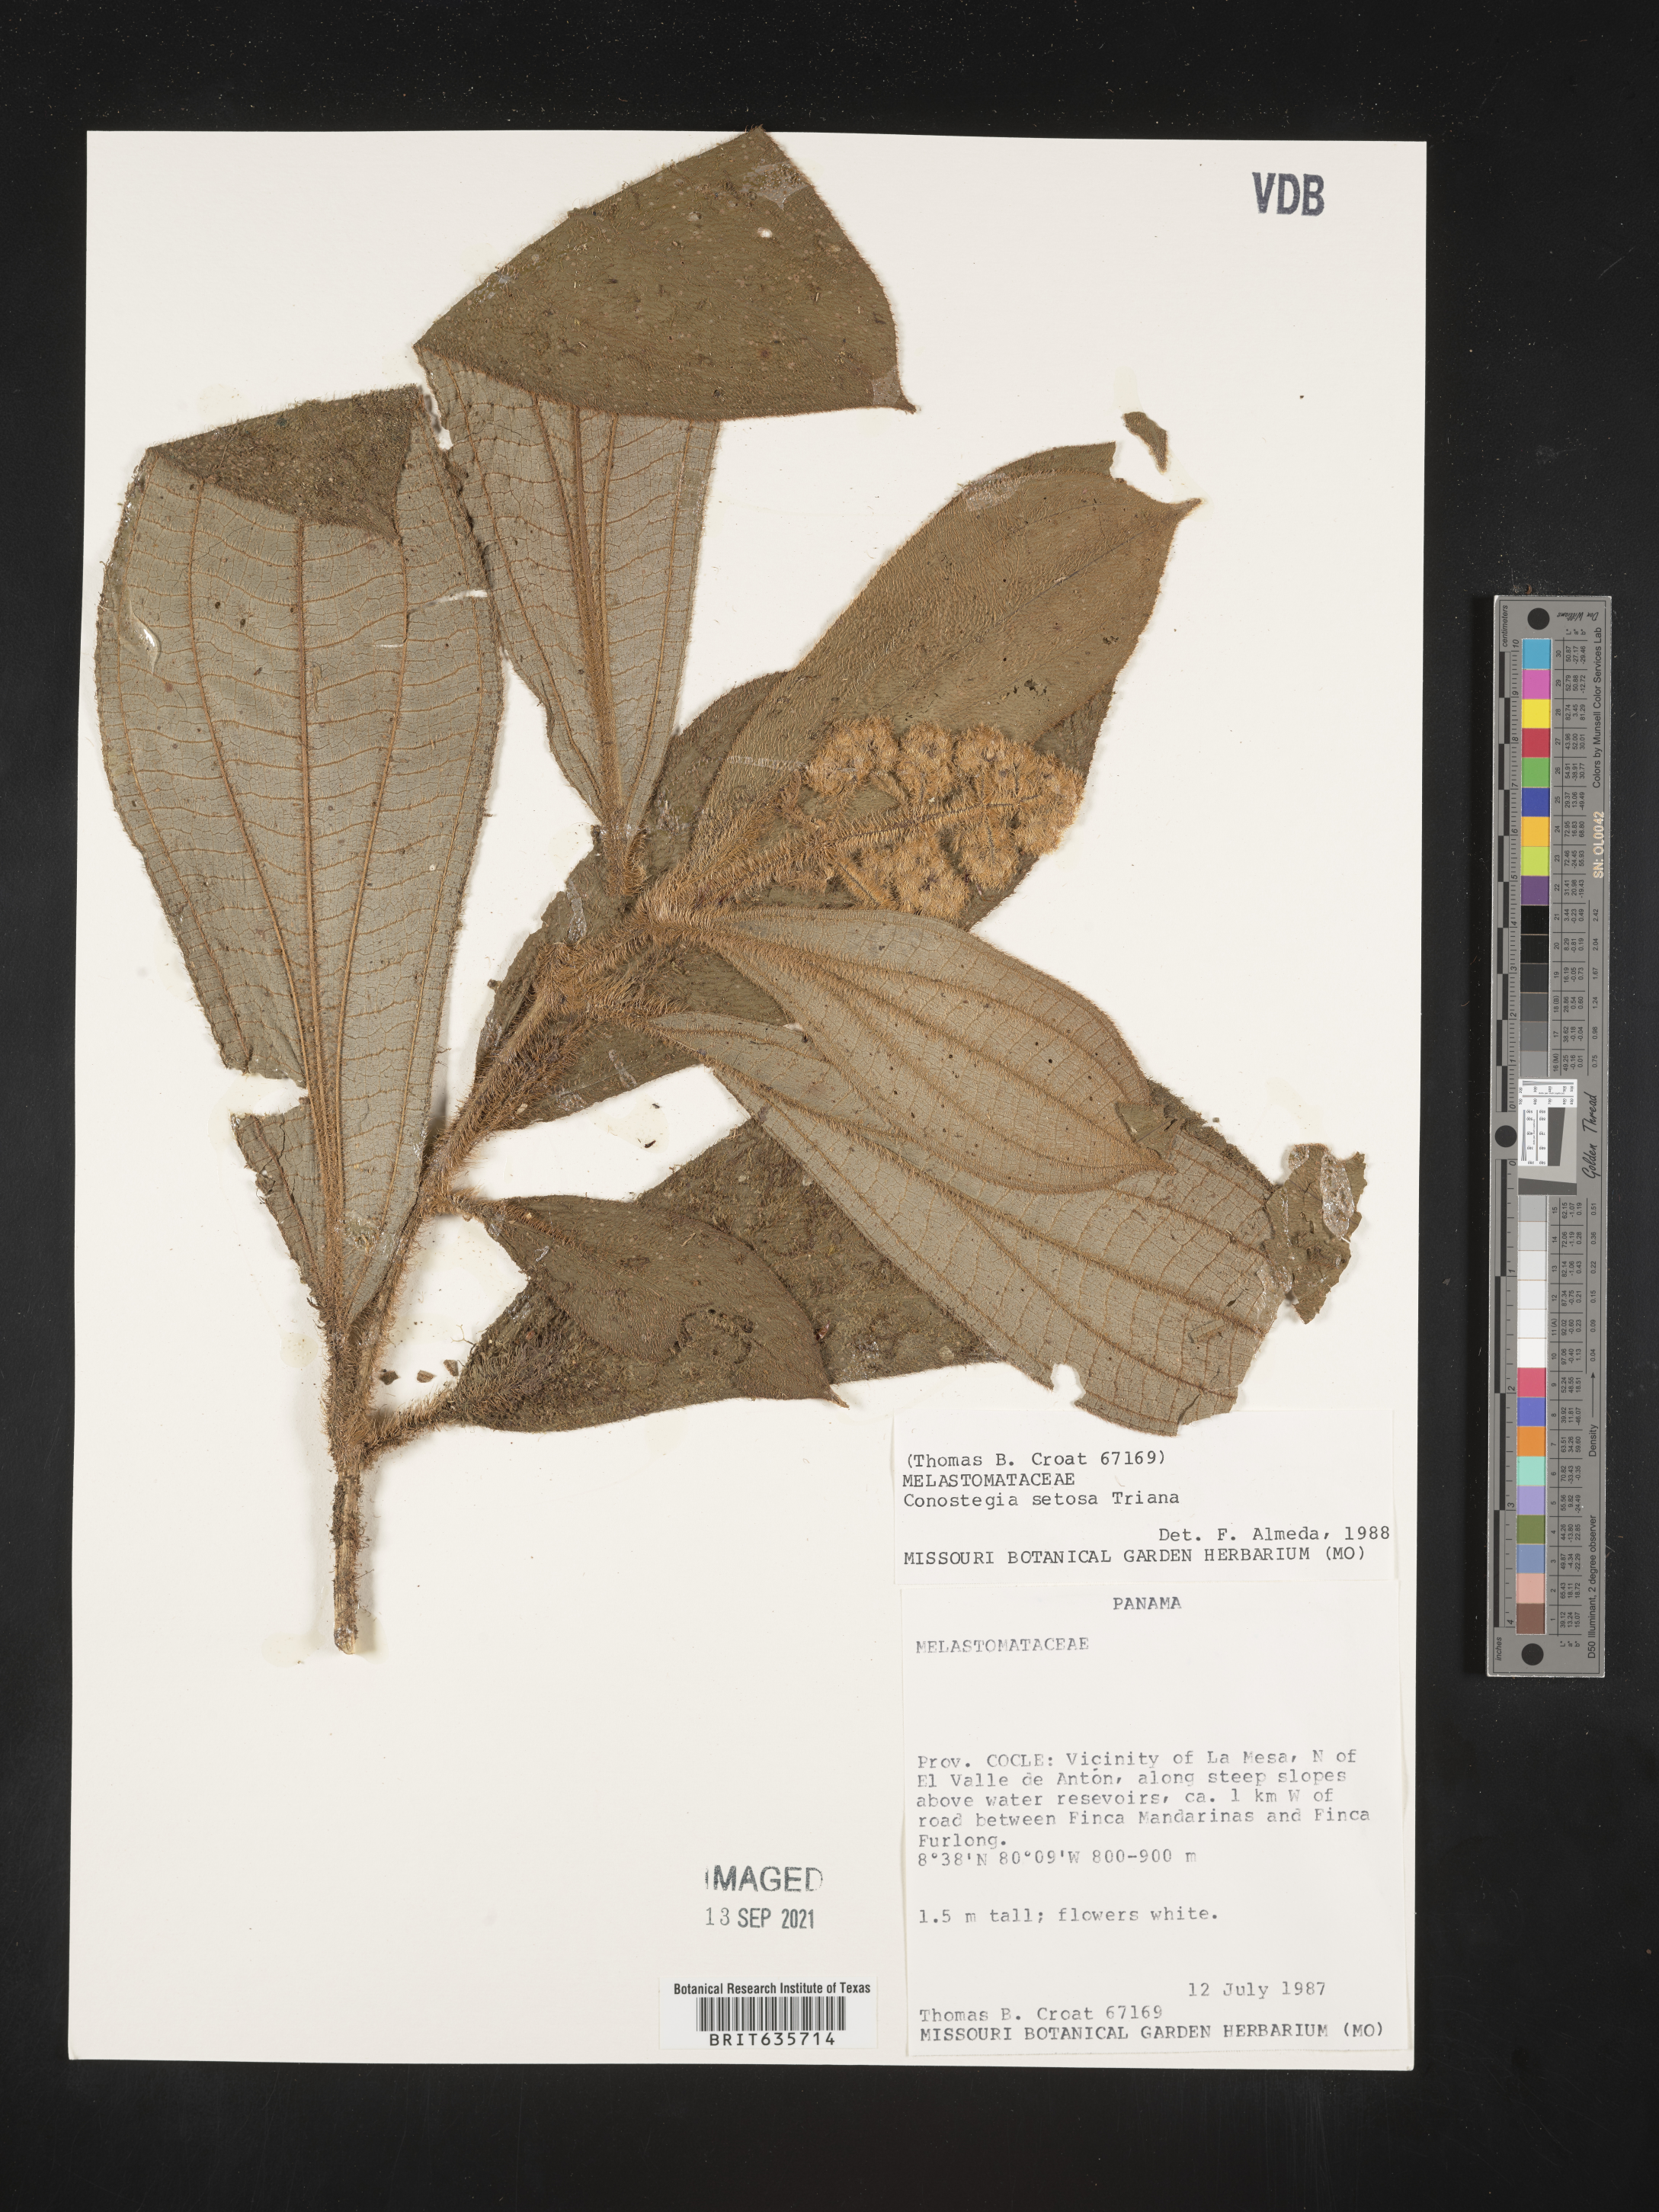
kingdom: Plantae
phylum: Tracheophyta
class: Magnoliopsida
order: Myrtales
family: Melastomataceae
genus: Miconia
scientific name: Miconia
